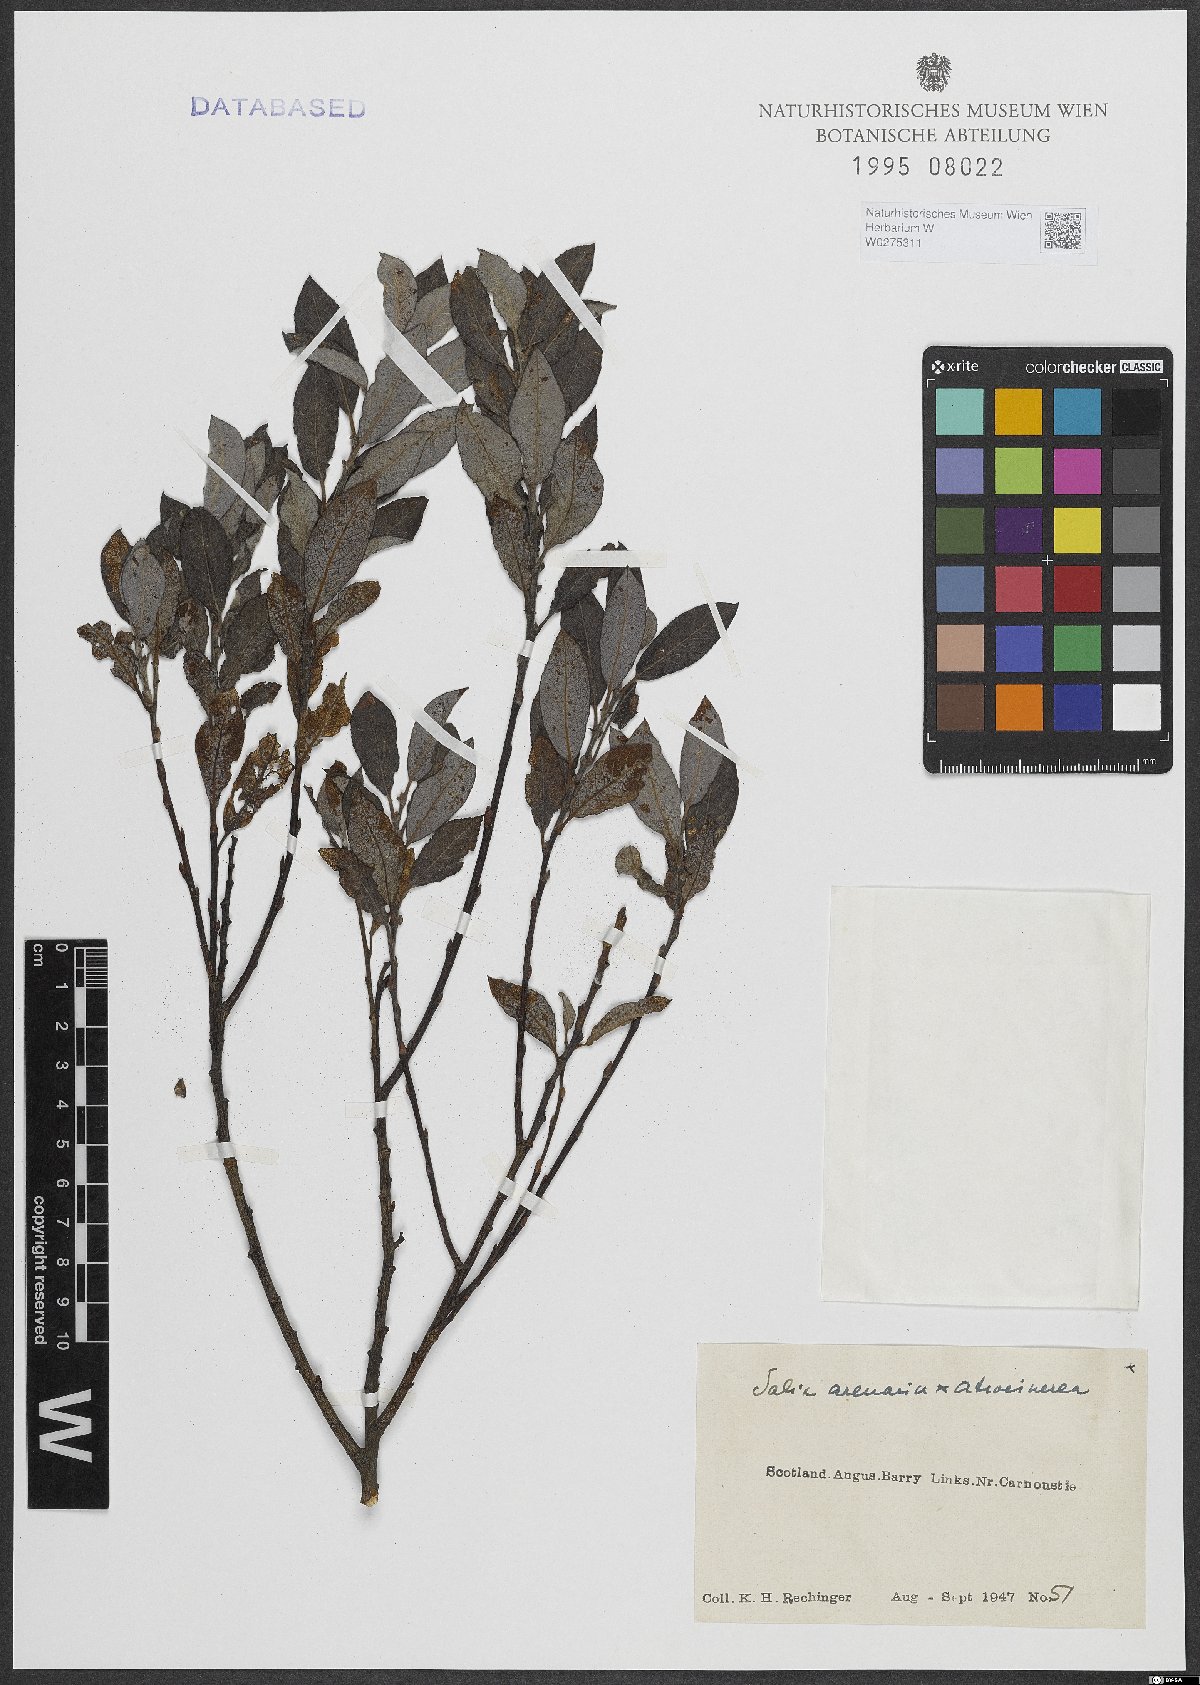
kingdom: Plantae
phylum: Tracheophyta
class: Magnoliopsida
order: Malpighiales
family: Salicaceae
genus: Salix
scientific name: Salix repens
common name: Creeping willow
